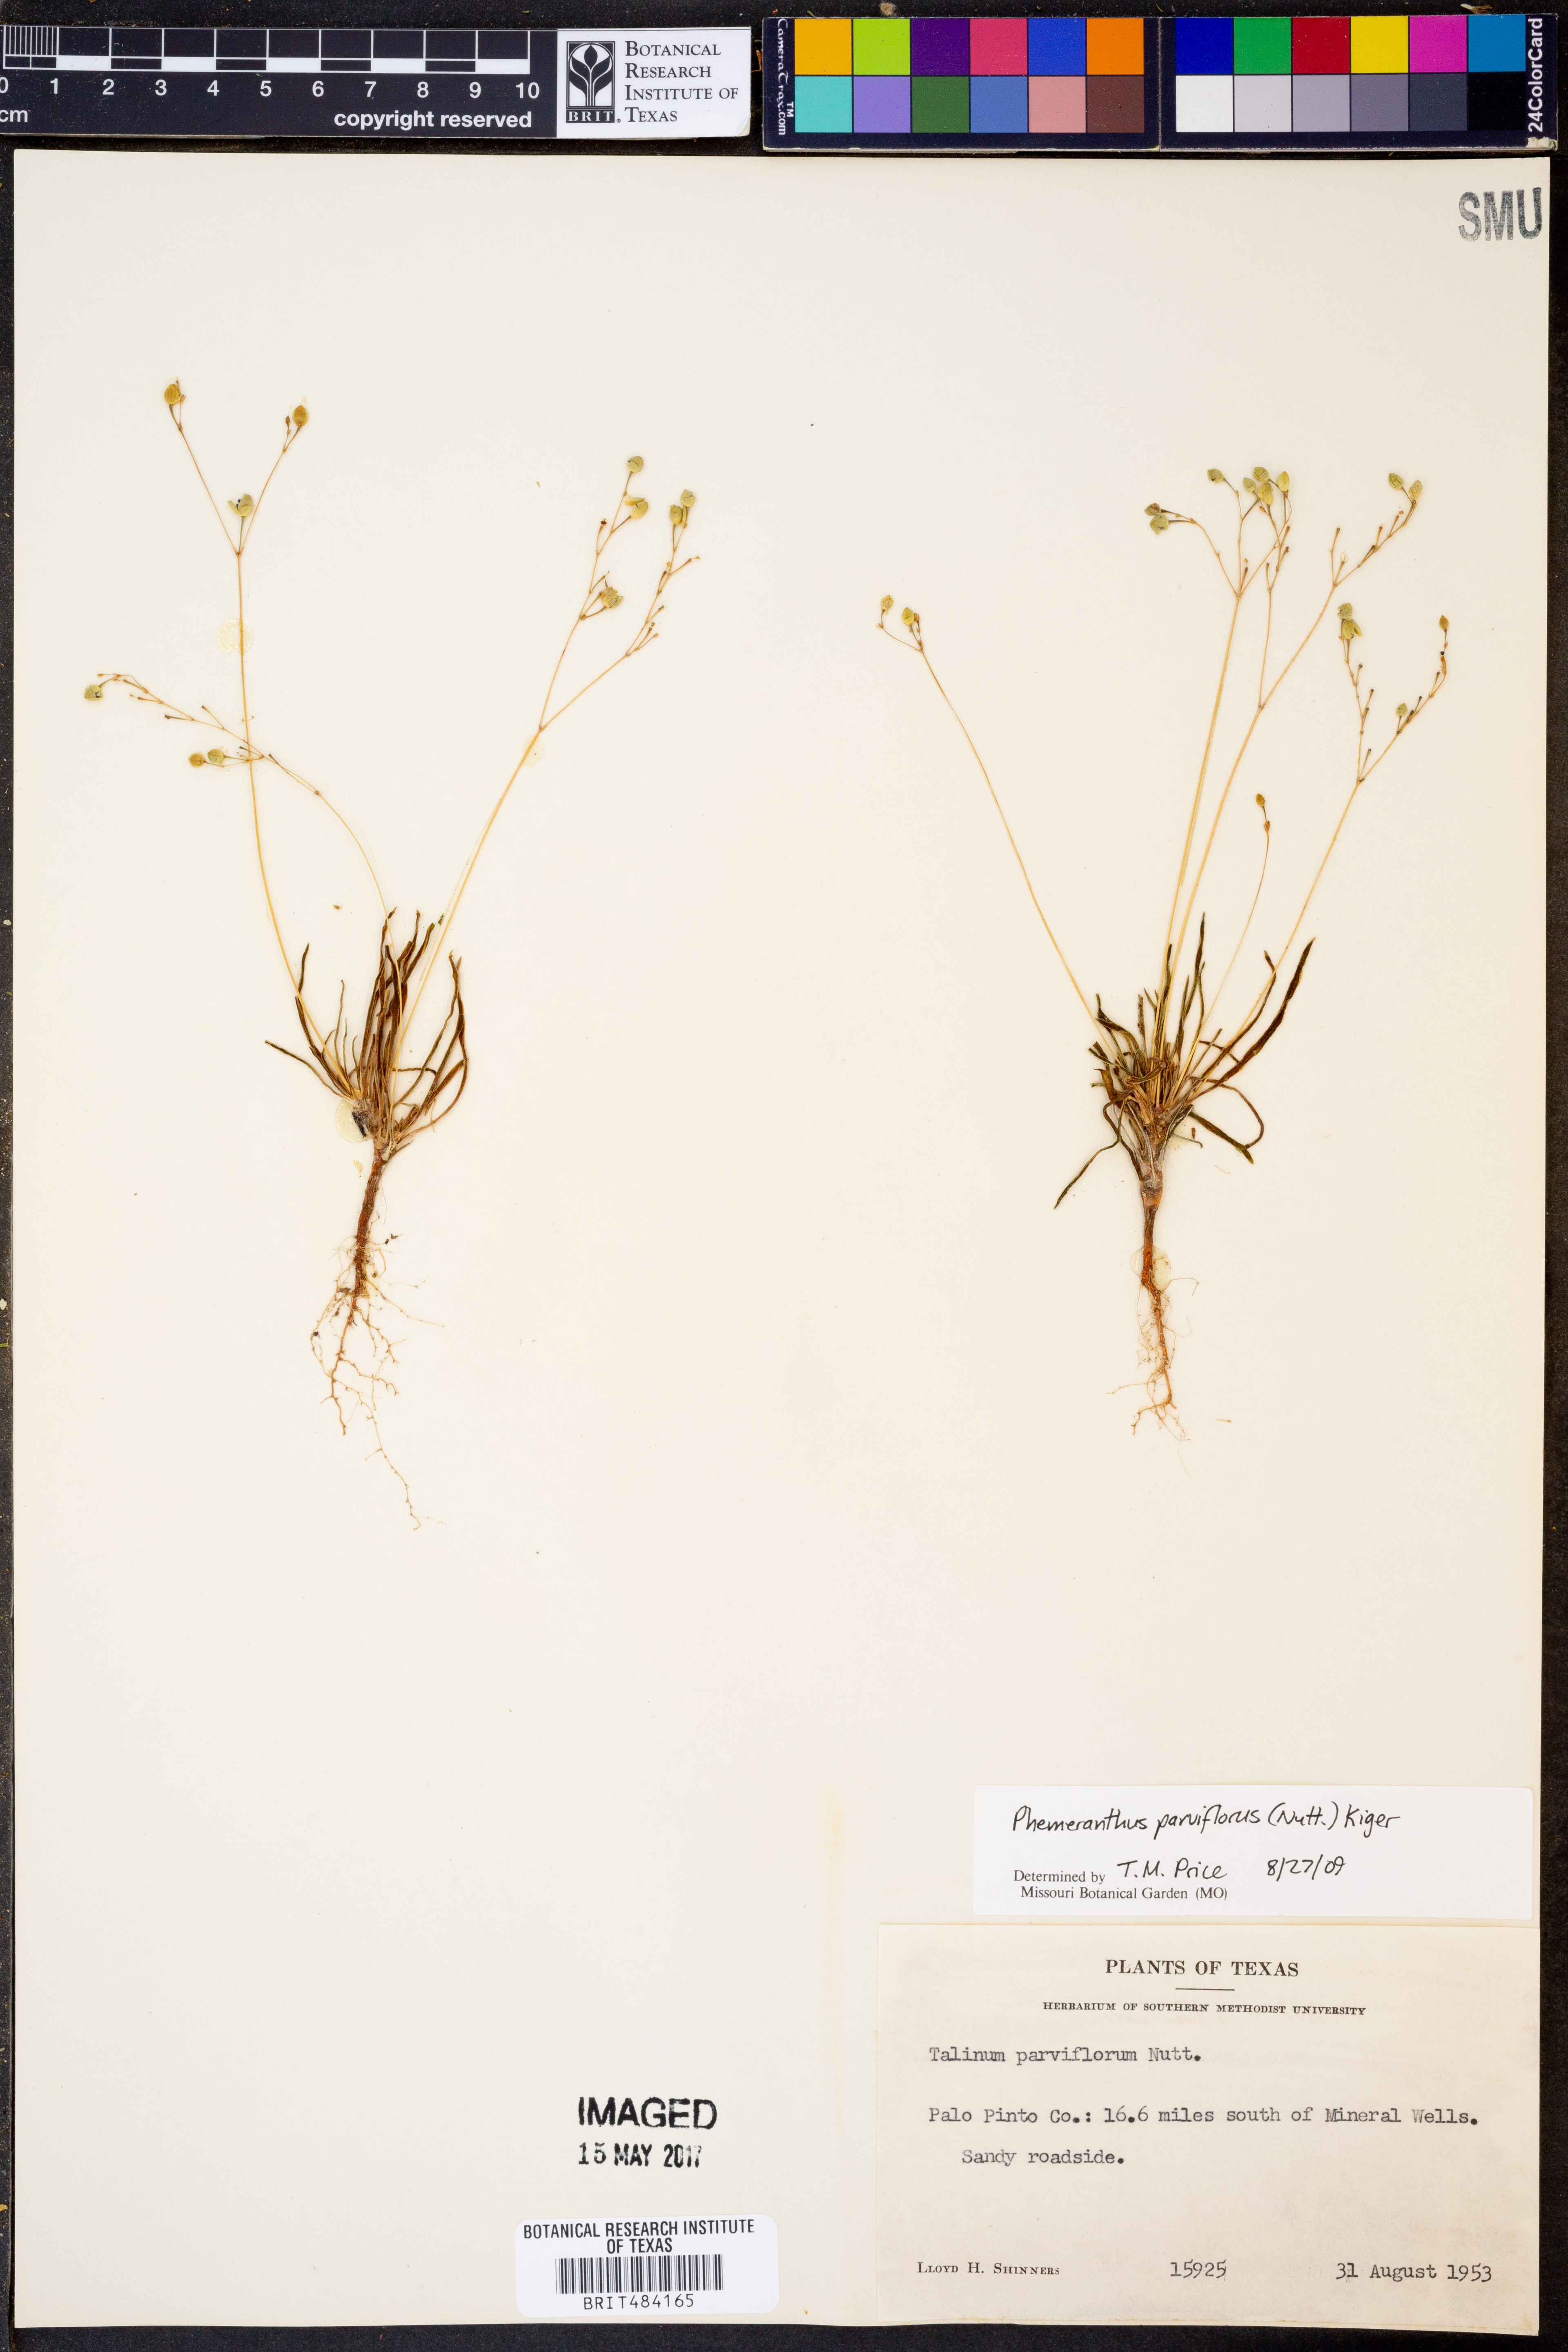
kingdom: Plantae
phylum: Tracheophyta
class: Magnoliopsida
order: Caryophyllales
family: Montiaceae
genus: Phemeranthus
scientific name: Phemeranthus parviflorus
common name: Sunbright
